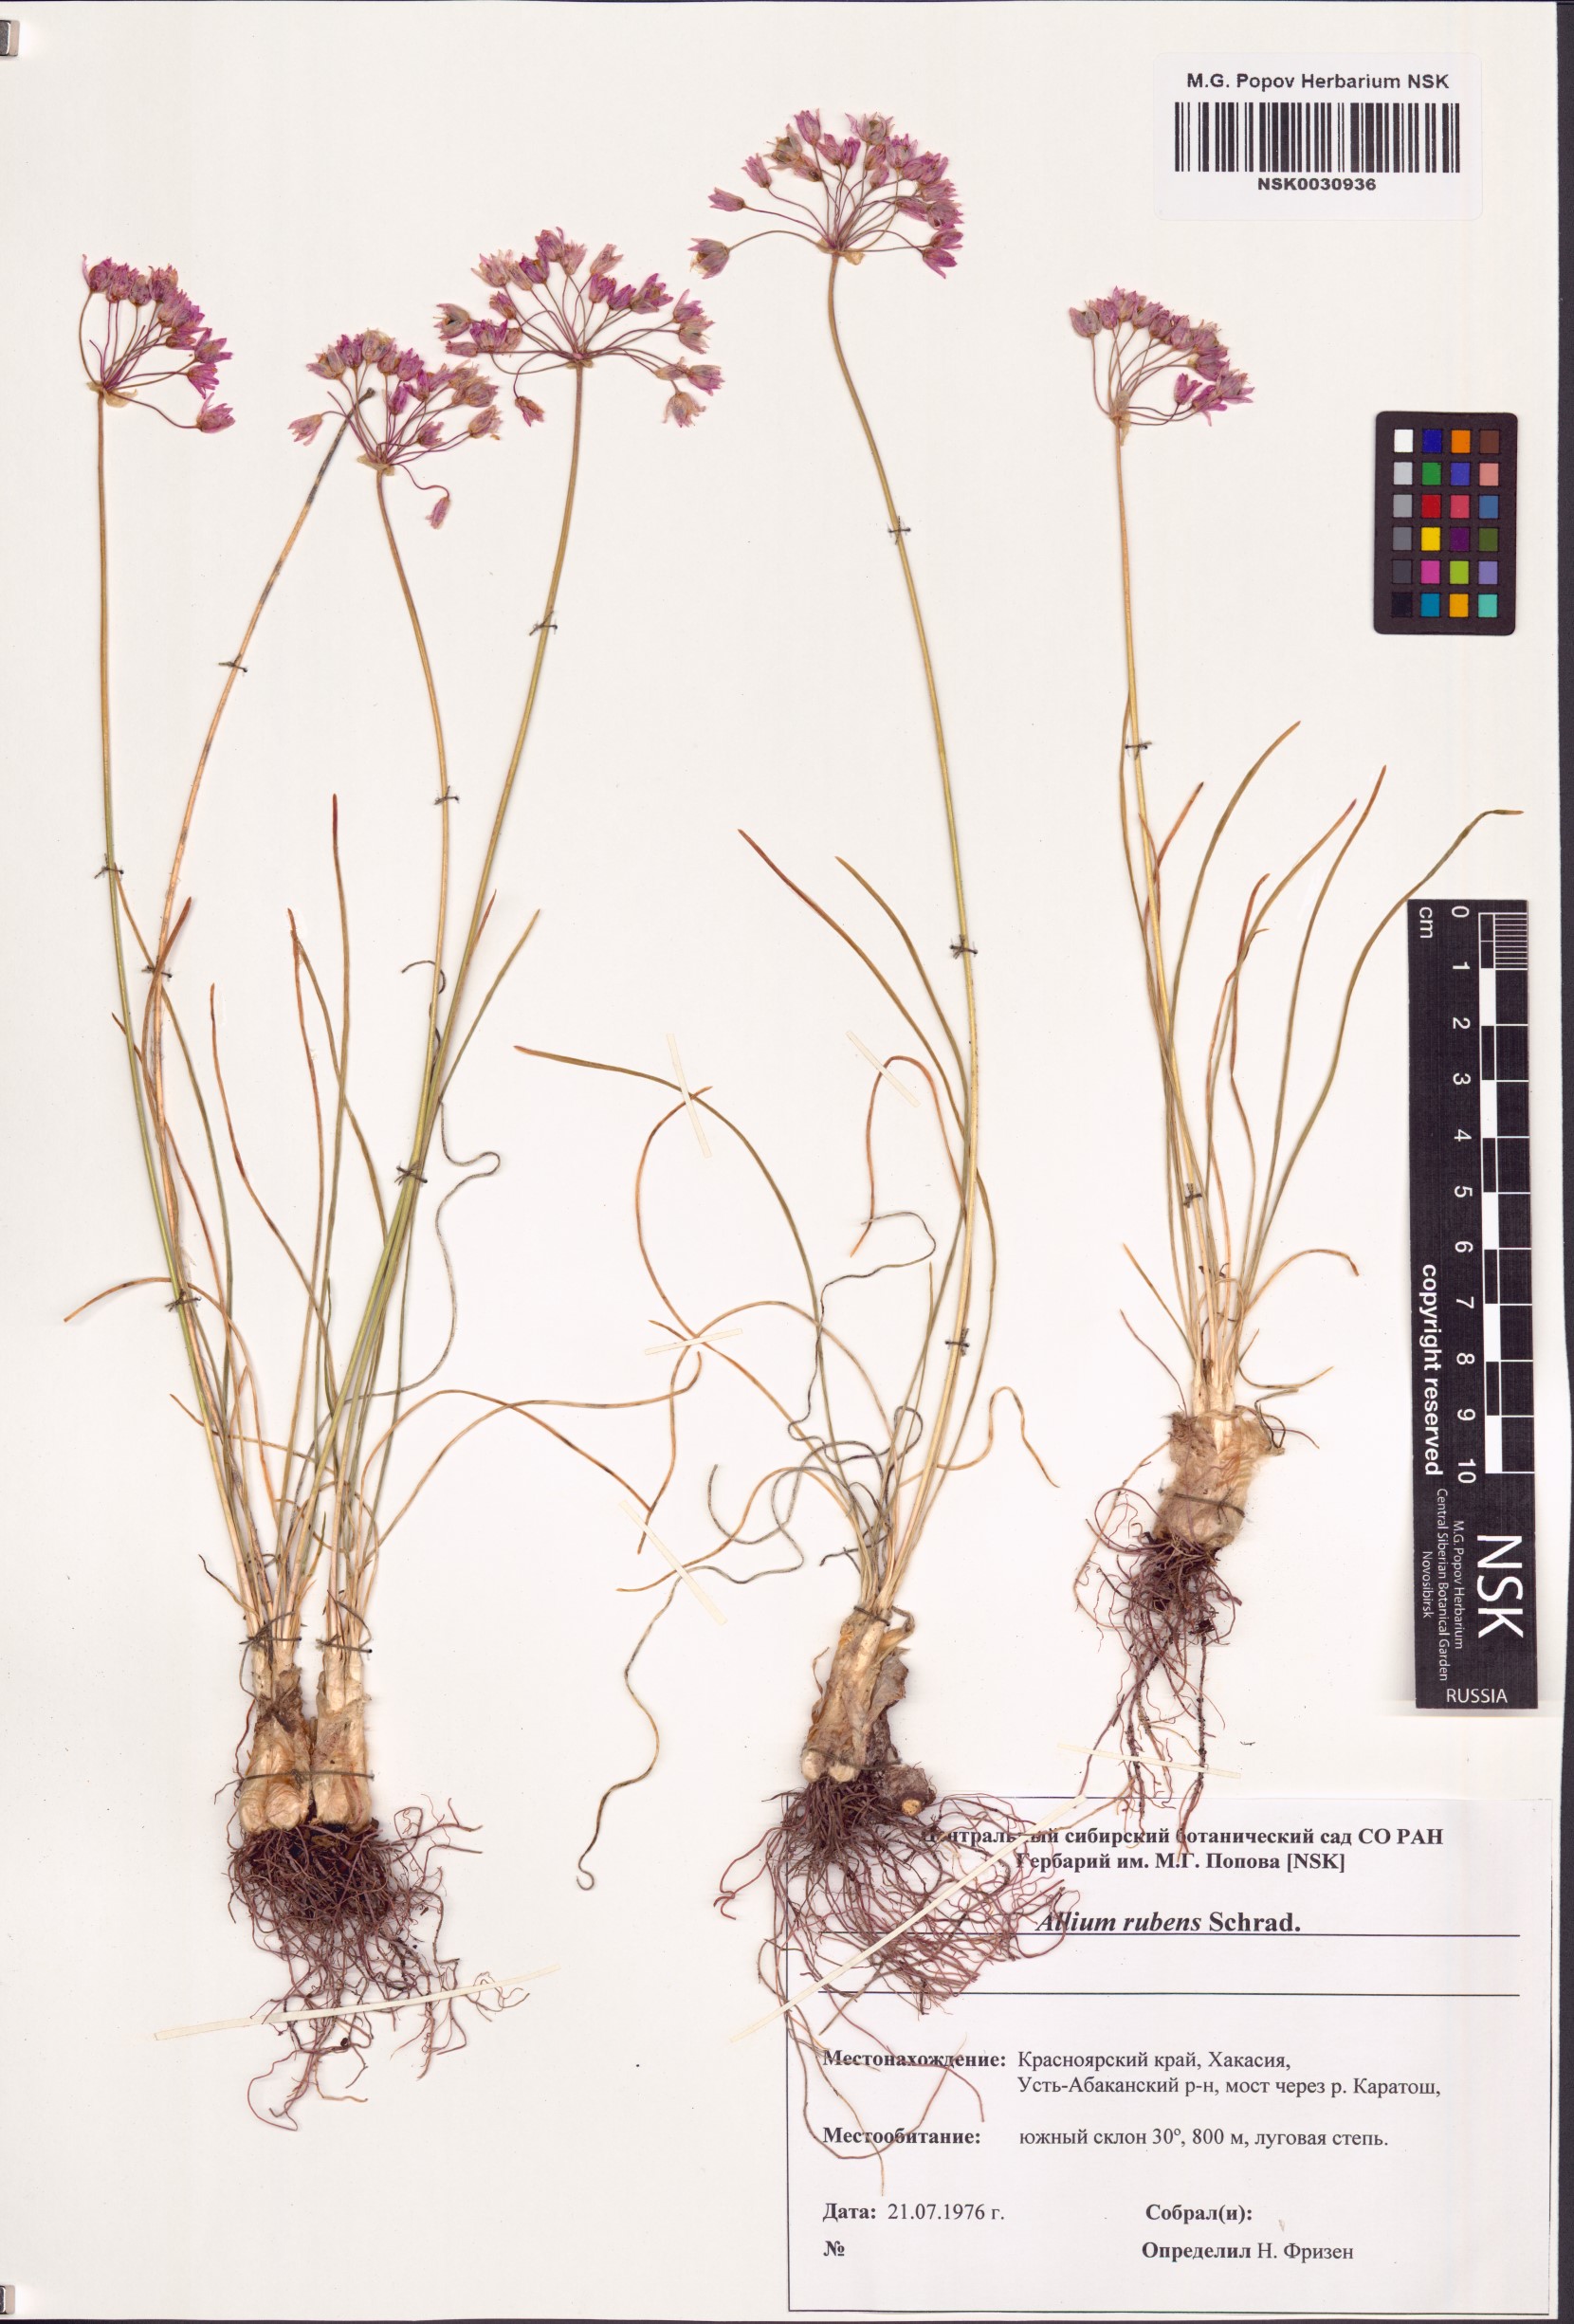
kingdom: Plantae
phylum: Tracheophyta
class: Liliopsida
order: Asparagales
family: Amaryllidaceae
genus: Allium
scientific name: Allium rubens
